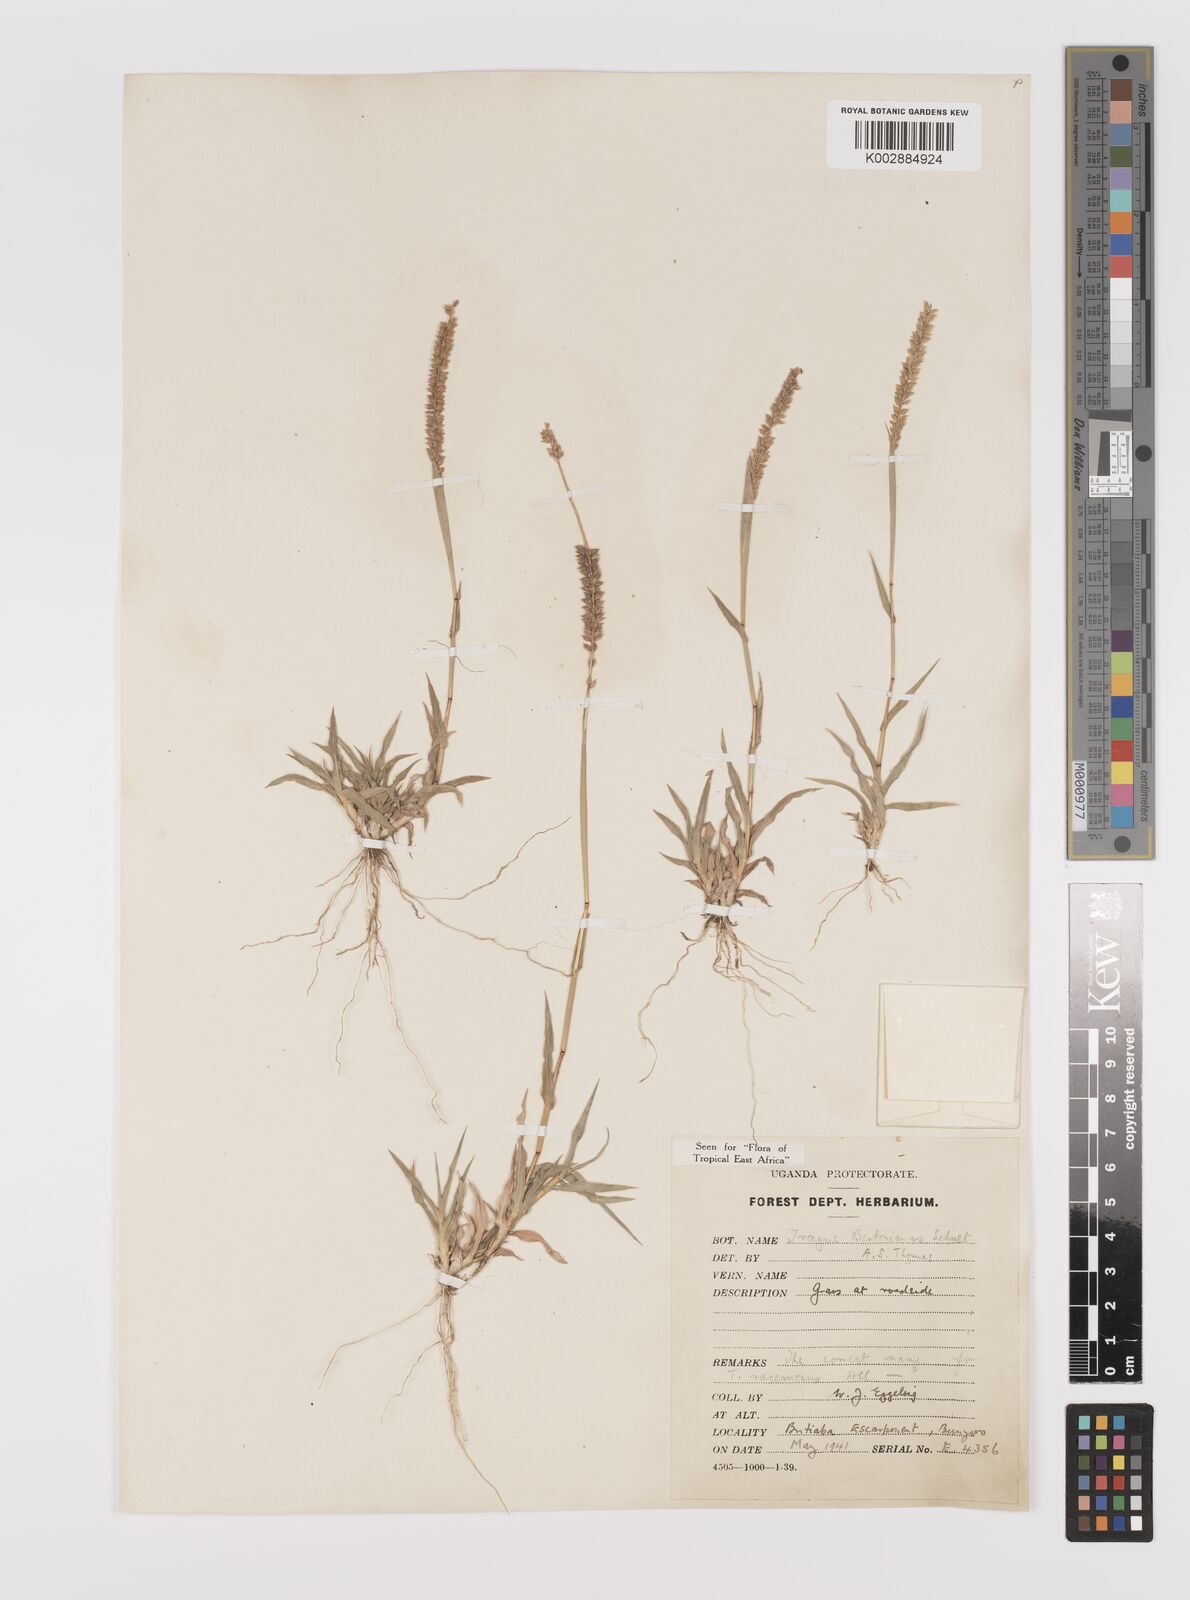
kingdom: Plantae
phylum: Tracheophyta
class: Liliopsida
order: Poales
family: Poaceae
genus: Tragus
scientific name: Tragus berteronianus
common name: African bur-grass
